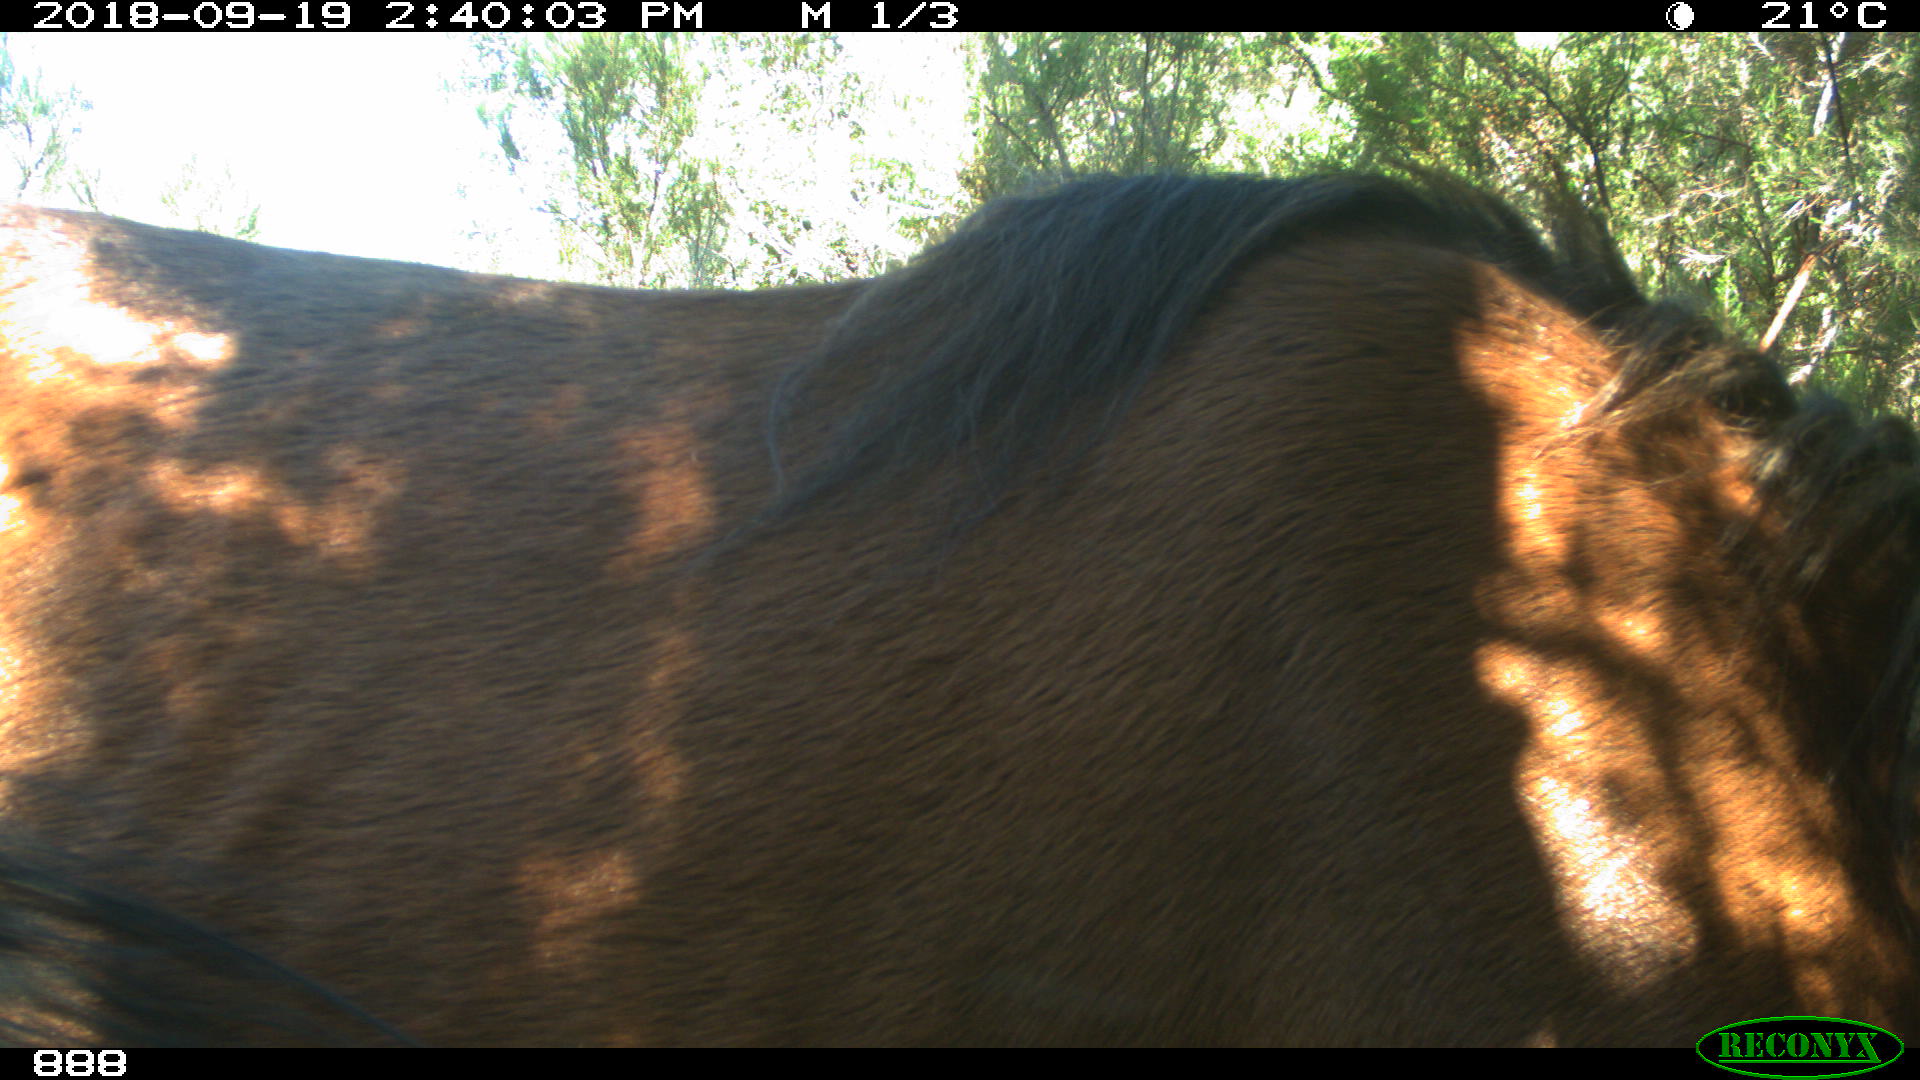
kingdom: Animalia
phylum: Chordata
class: Mammalia
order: Perissodactyla
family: Equidae
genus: Equus
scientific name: Equus caballus
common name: Horse
